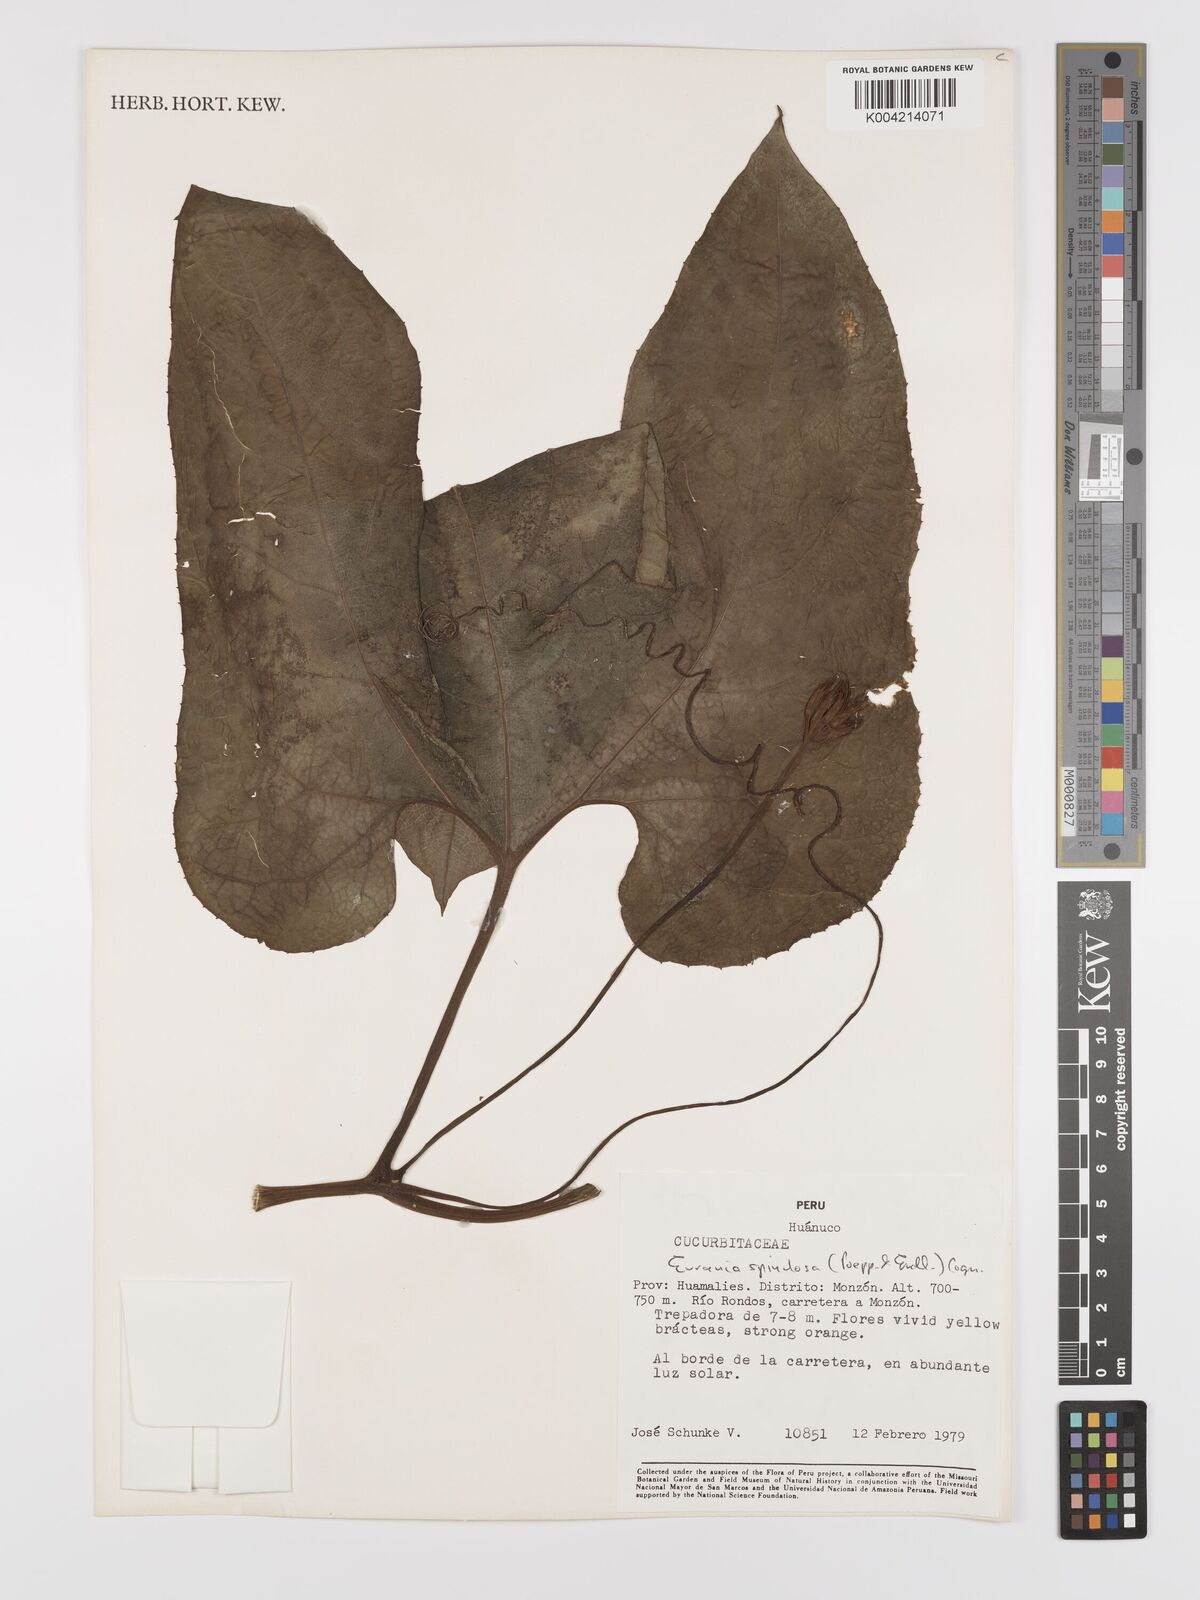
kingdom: Plantae
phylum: Tracheophyta
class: Magnoliopsida
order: Cucurbitales
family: Cucurbitaceae
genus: Gurania
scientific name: Gurania lobata
